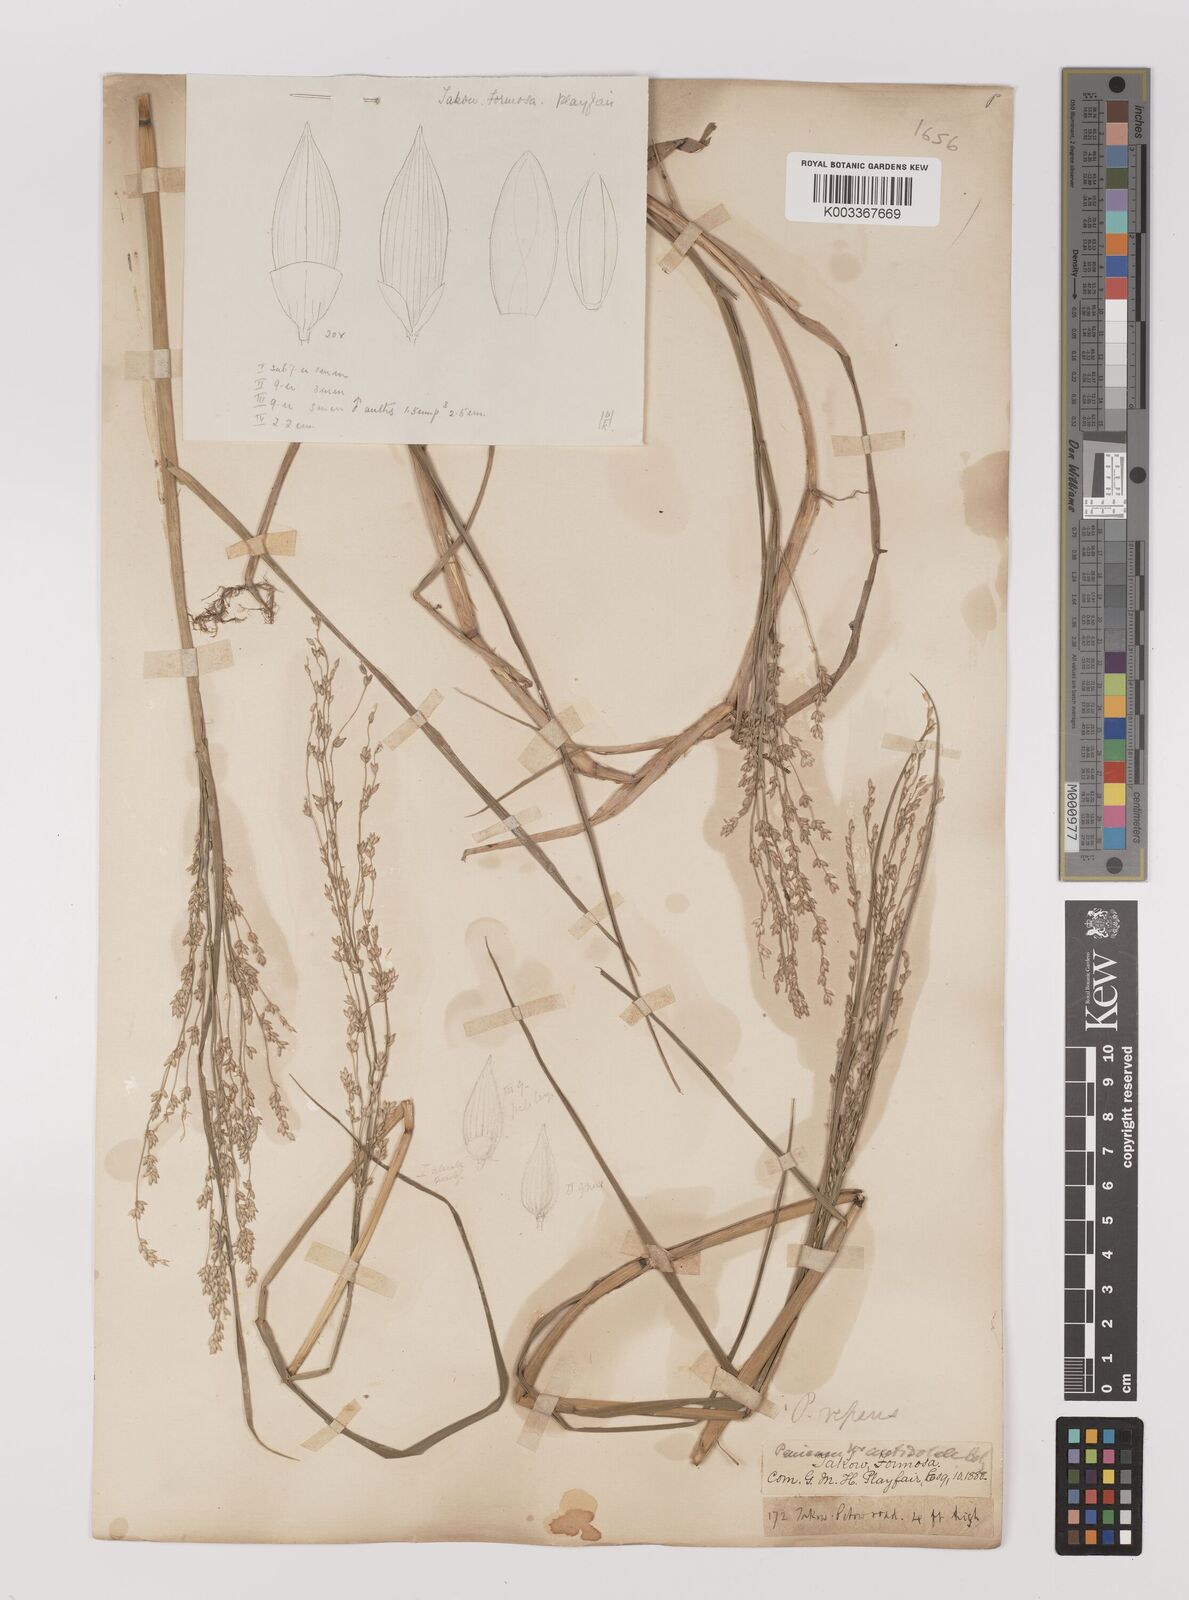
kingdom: Plantae
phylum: Tracheophyta
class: Liliopsida
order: Poales
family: Poaceae
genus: Panicum
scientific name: Panicum repens
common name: Torpedo grass
